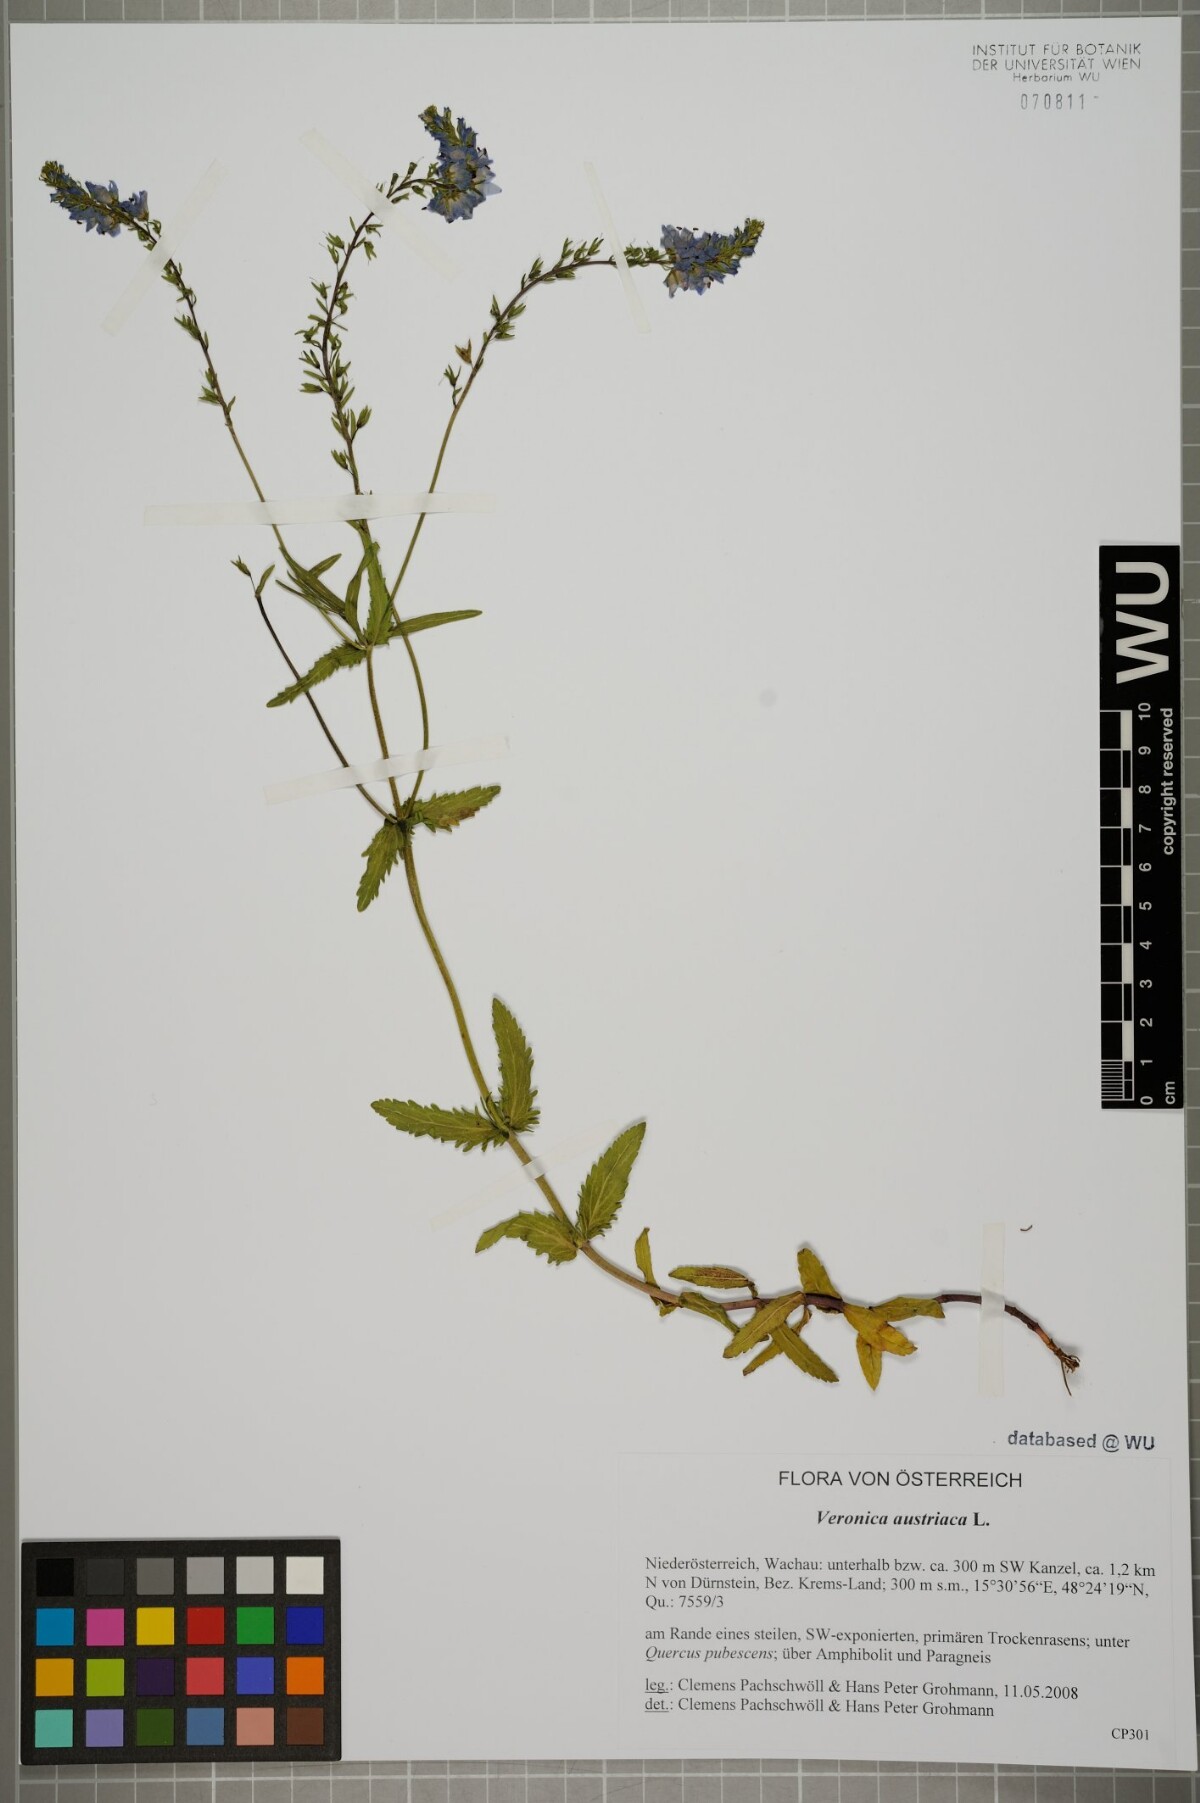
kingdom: Plantae
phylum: Tracheophyta
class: Magnoliopsida
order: Lamiales
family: Plantaginaceae
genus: Veronica
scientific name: Veronica austriaca
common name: Large speedwell
